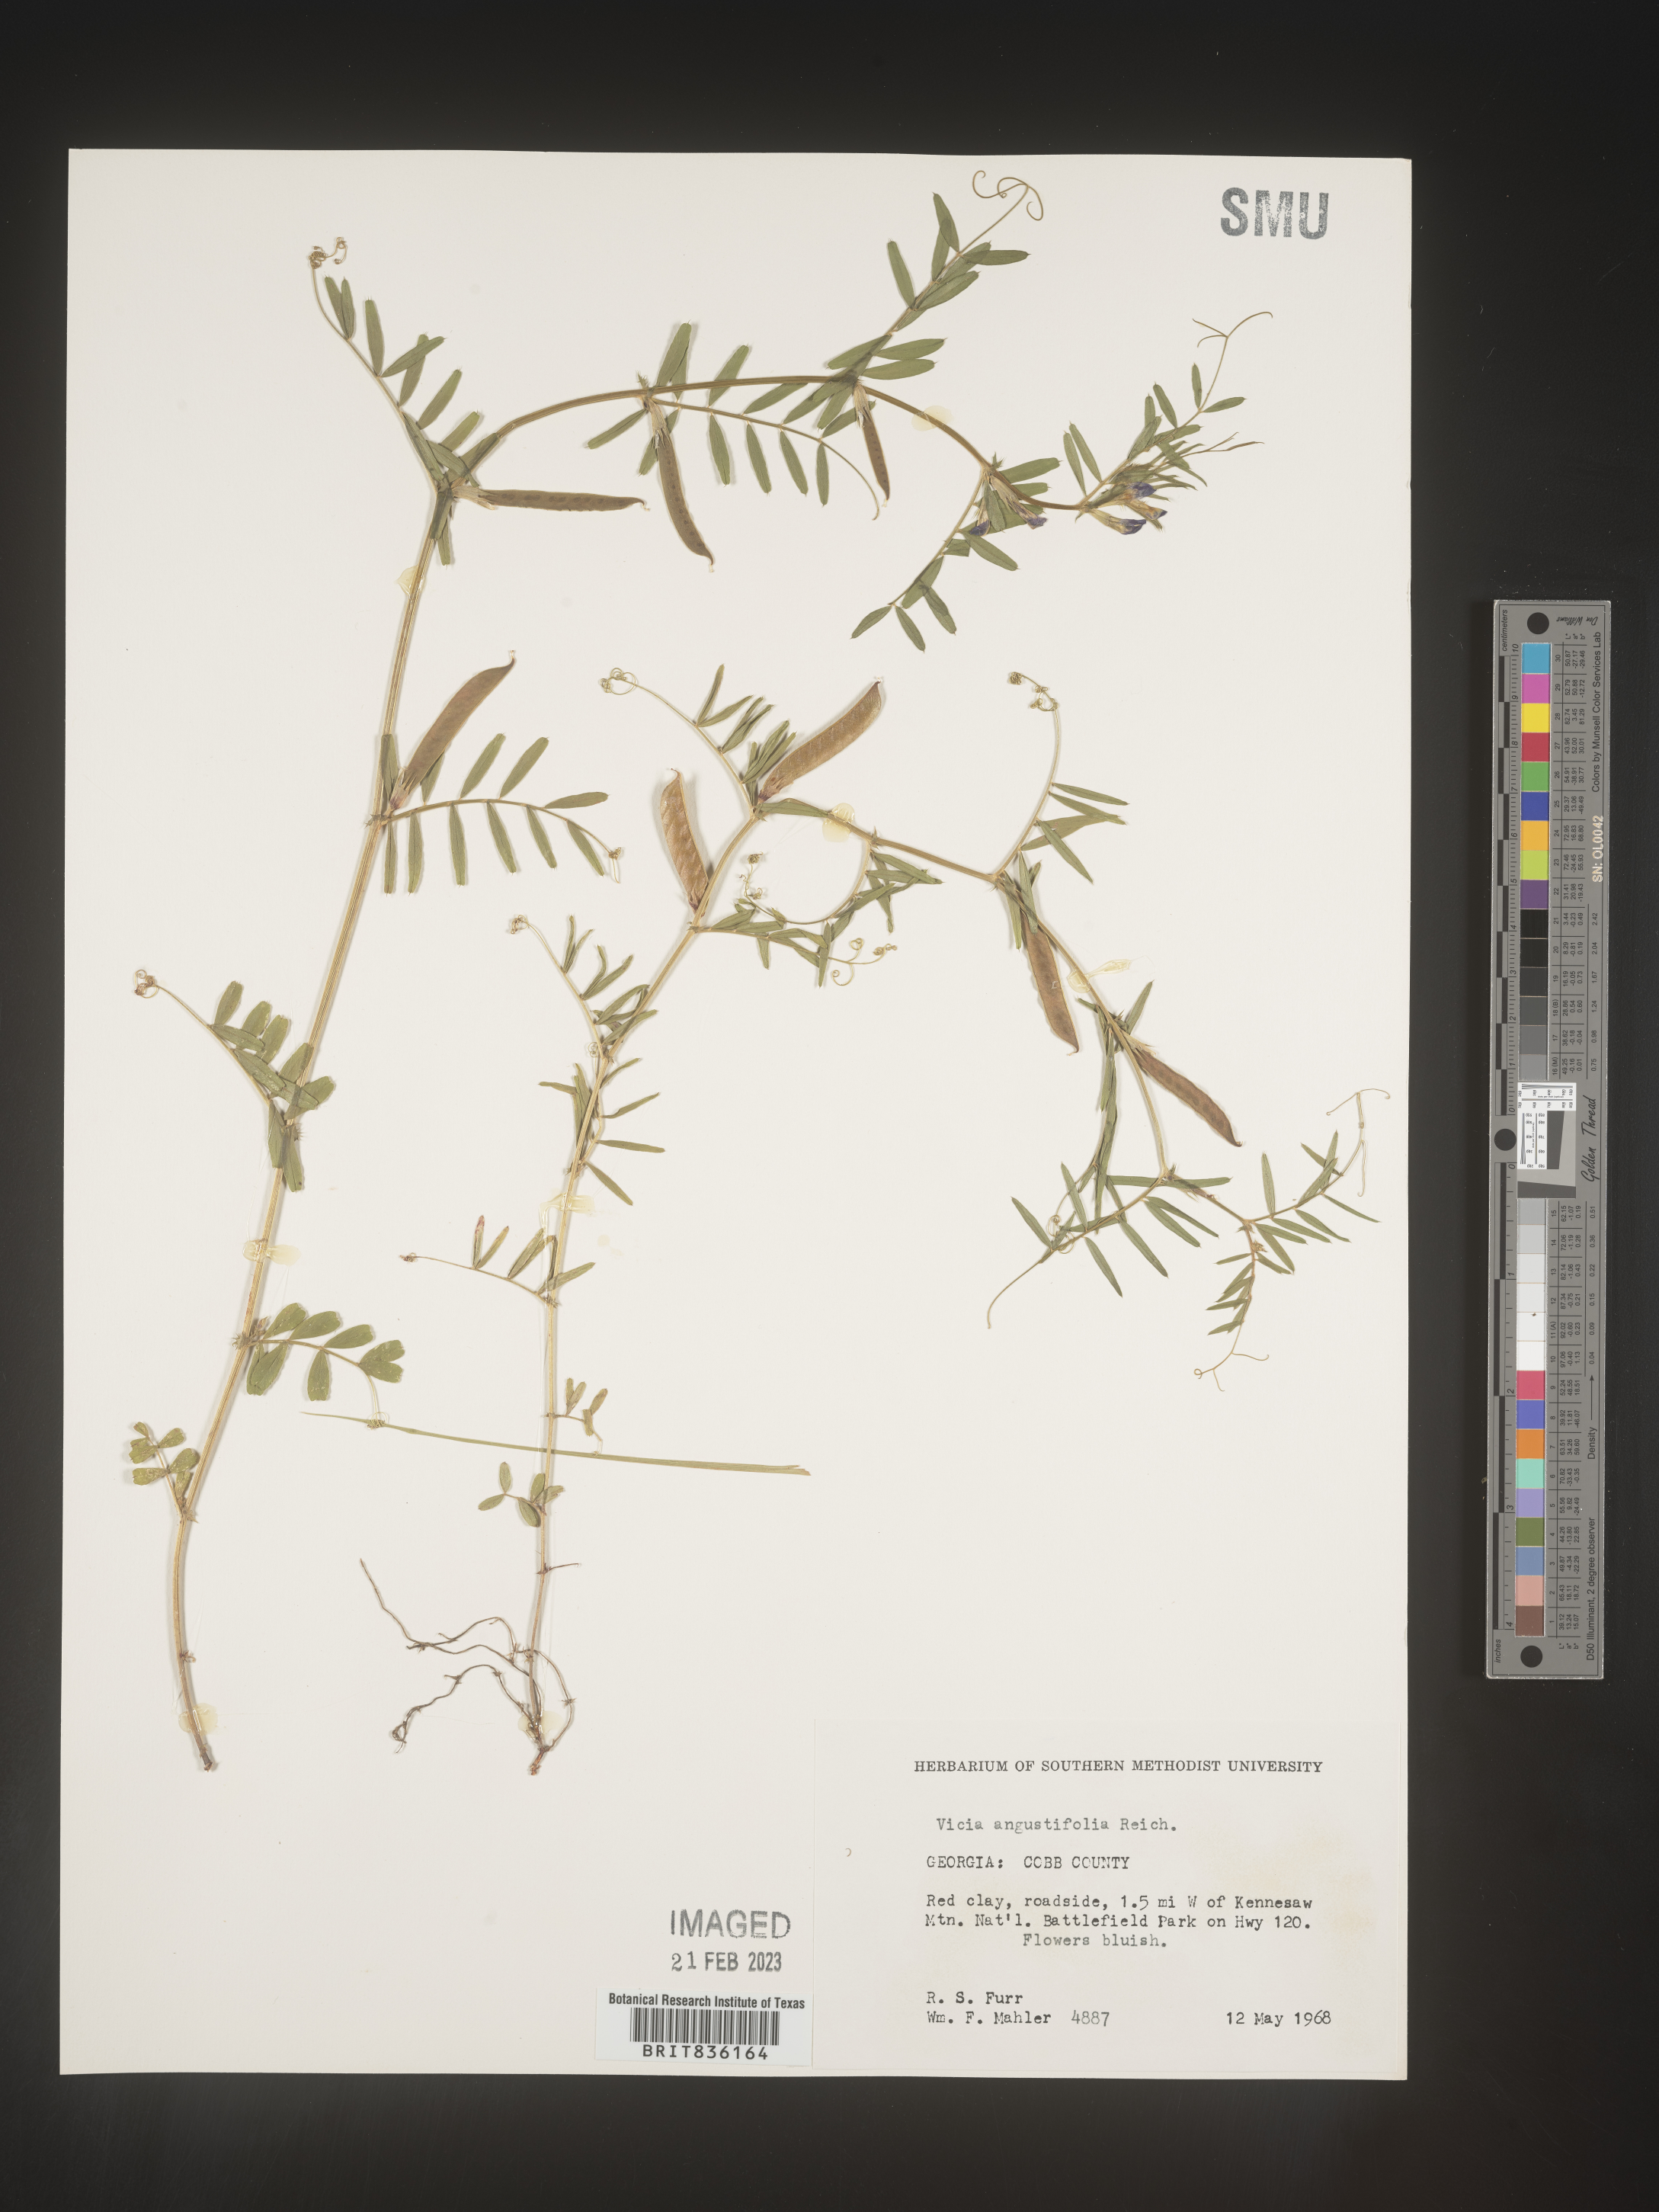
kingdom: Plantae
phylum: Tracheophyta
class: Magnoliopsida
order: Fabales
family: Fabaceae
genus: Vicia
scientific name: Vicia sativa
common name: Garden vetch
